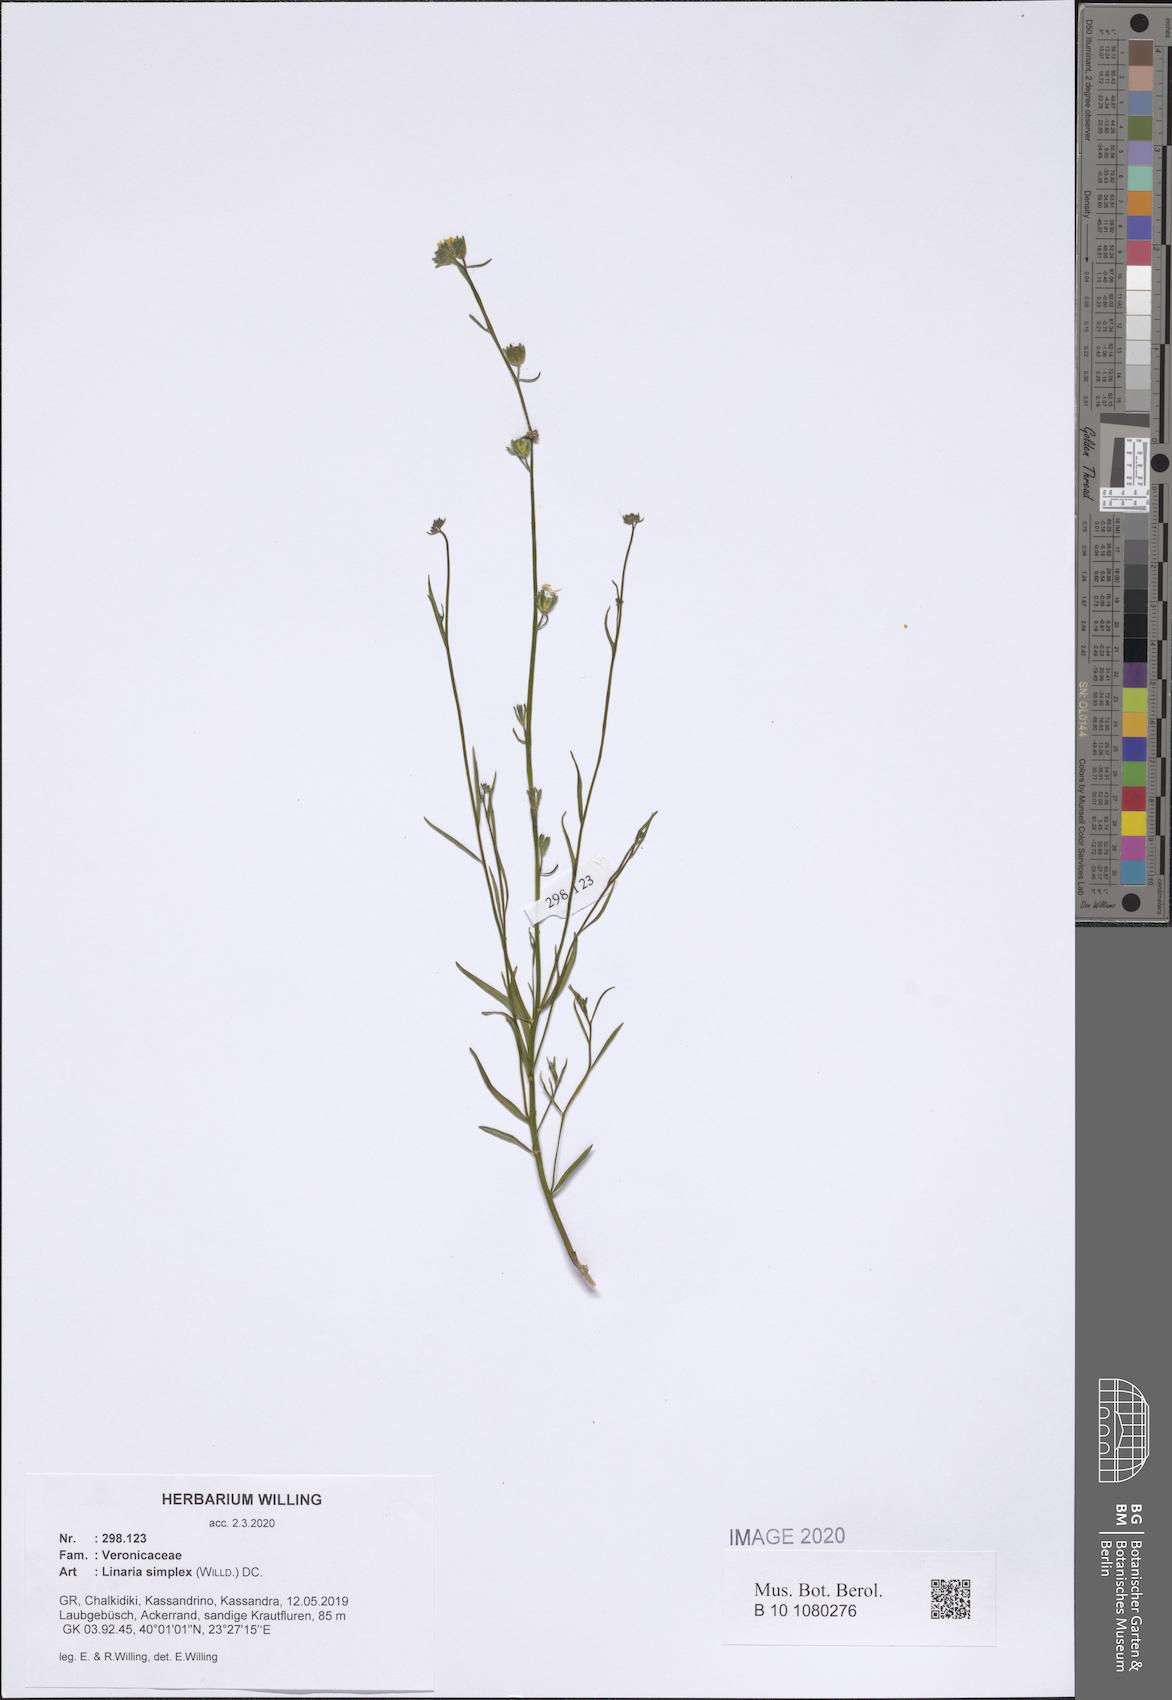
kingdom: Plantae
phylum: Tracheophyta
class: Magnoliopsida
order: Lamiales
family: Plantaginaceae
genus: Linaria
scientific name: Linaria simplex
